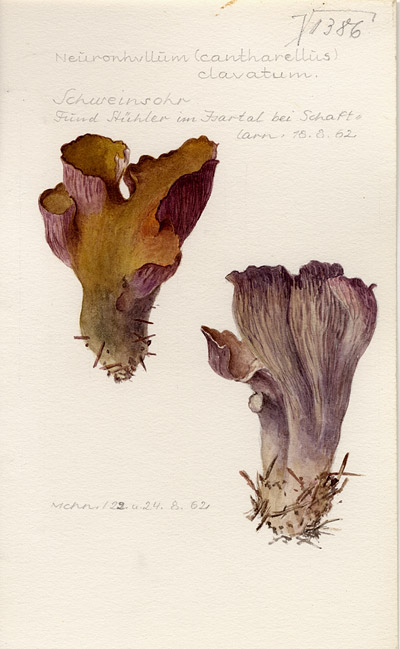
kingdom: Fungi
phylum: Basidiomycota
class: Agaricomycetes
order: Gomphales
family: Gomphaceae
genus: Gomphus
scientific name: Gomphus clavatus
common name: Pig's ear
